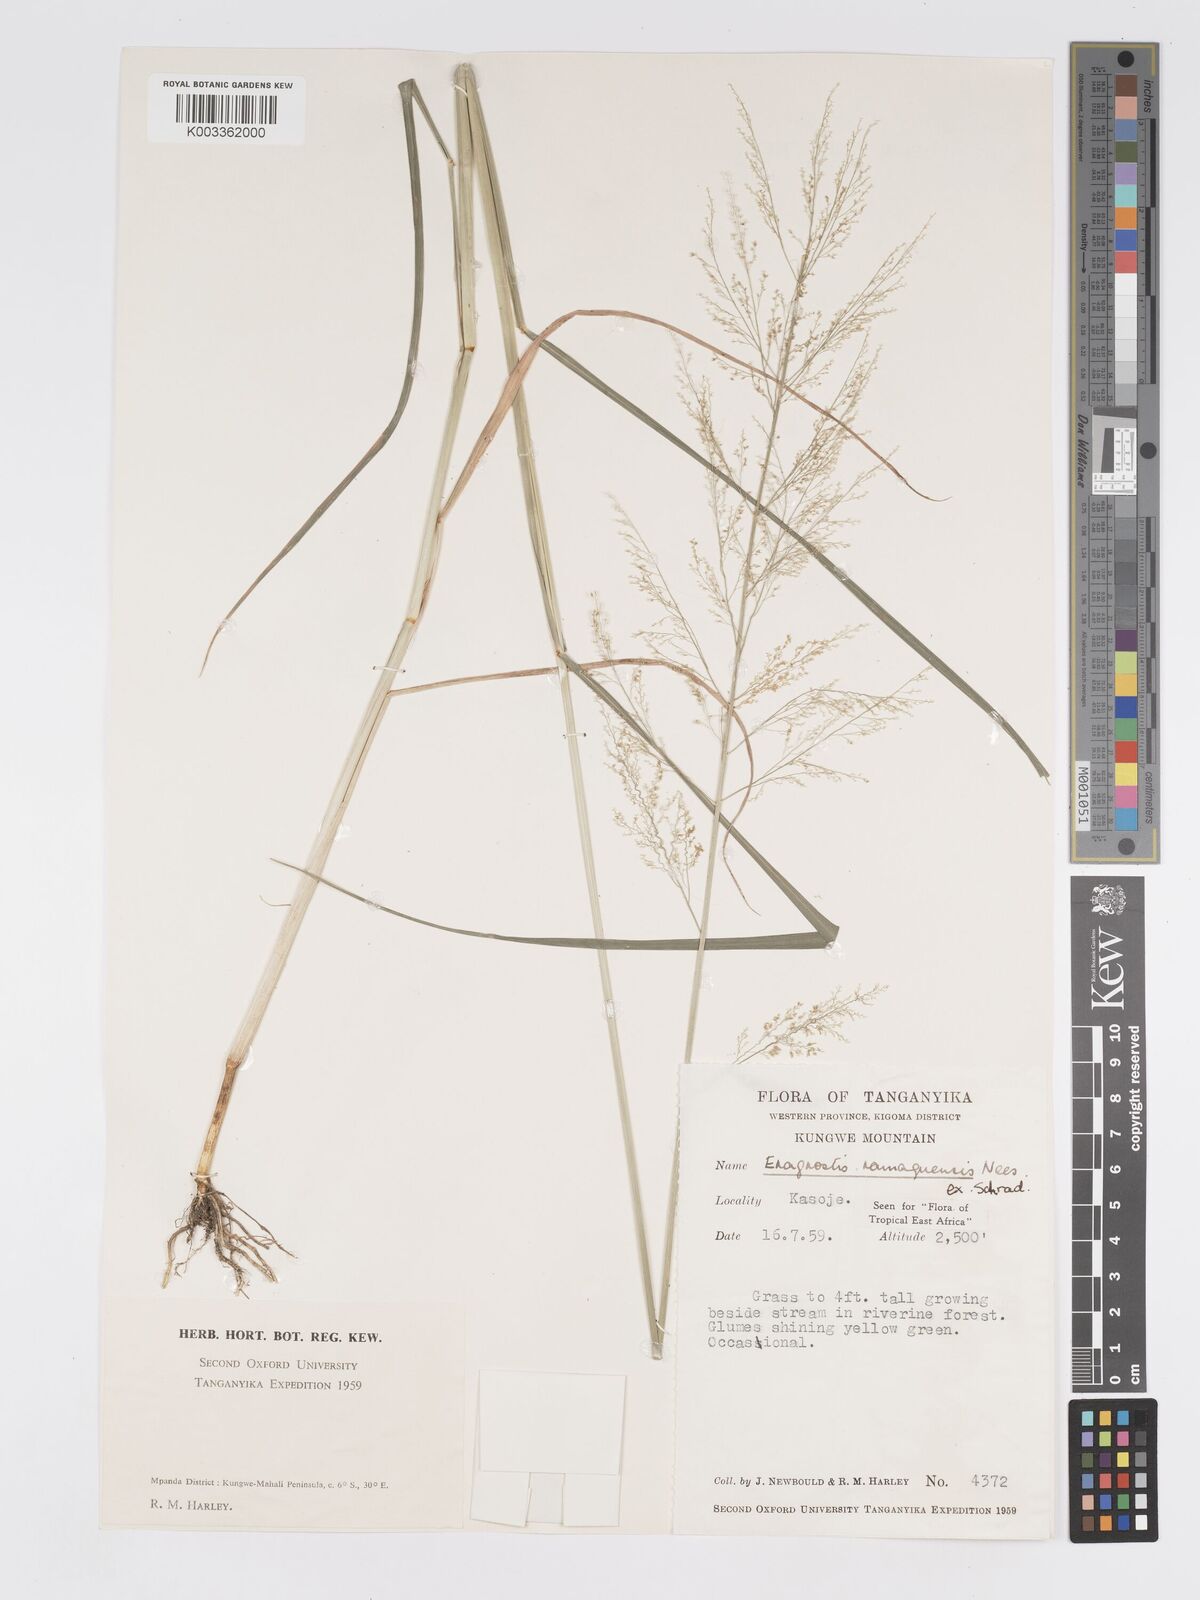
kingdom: Plantae
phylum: Tracheophyta
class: Liliopsida
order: Poales
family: Poaceae
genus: Eragrostis
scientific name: Eragrostis japonica
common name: Pond lovegrass
